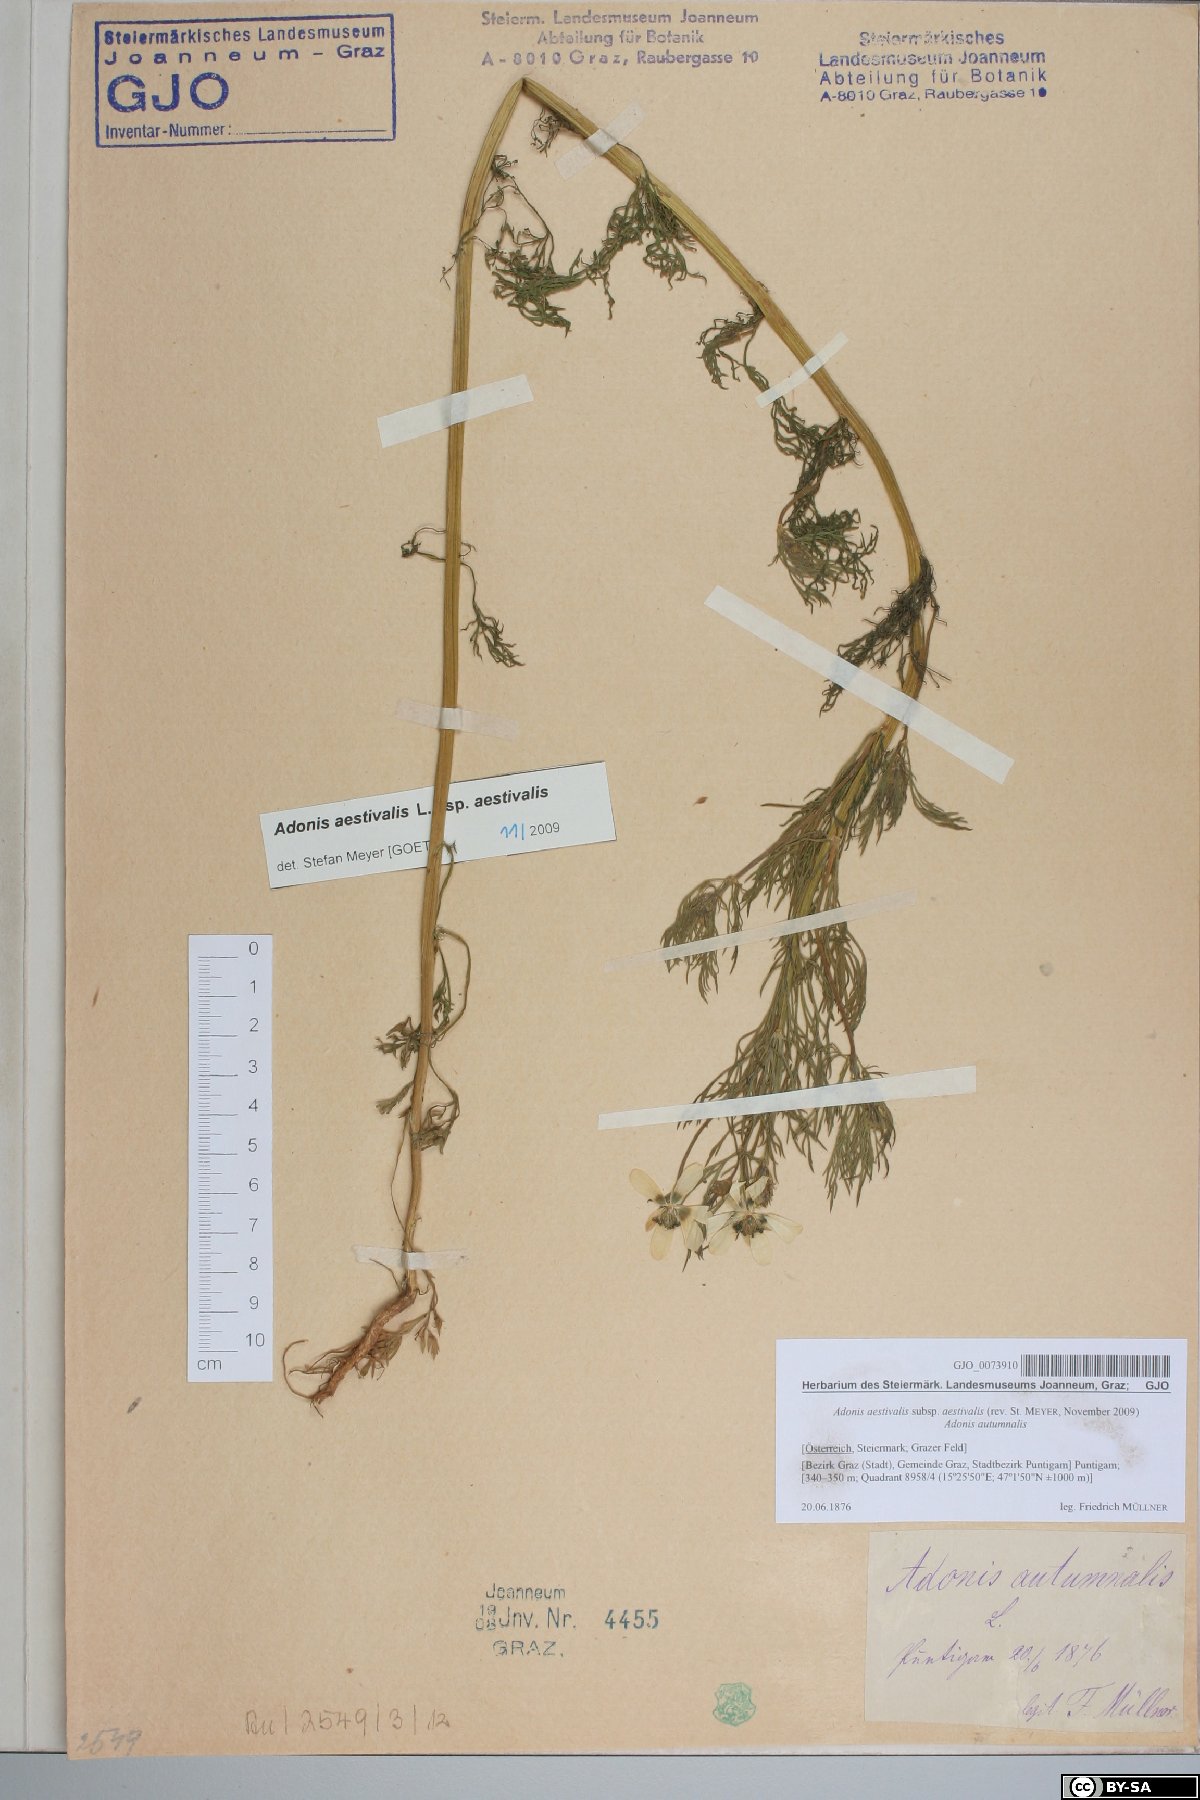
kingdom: Plantae
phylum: Tracheophyta
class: Magnoliopsida
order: Ranunculales
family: Ranunculaceae
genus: Adonis
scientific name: Adonis aestivalis
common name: Summer pheasant's-eye
